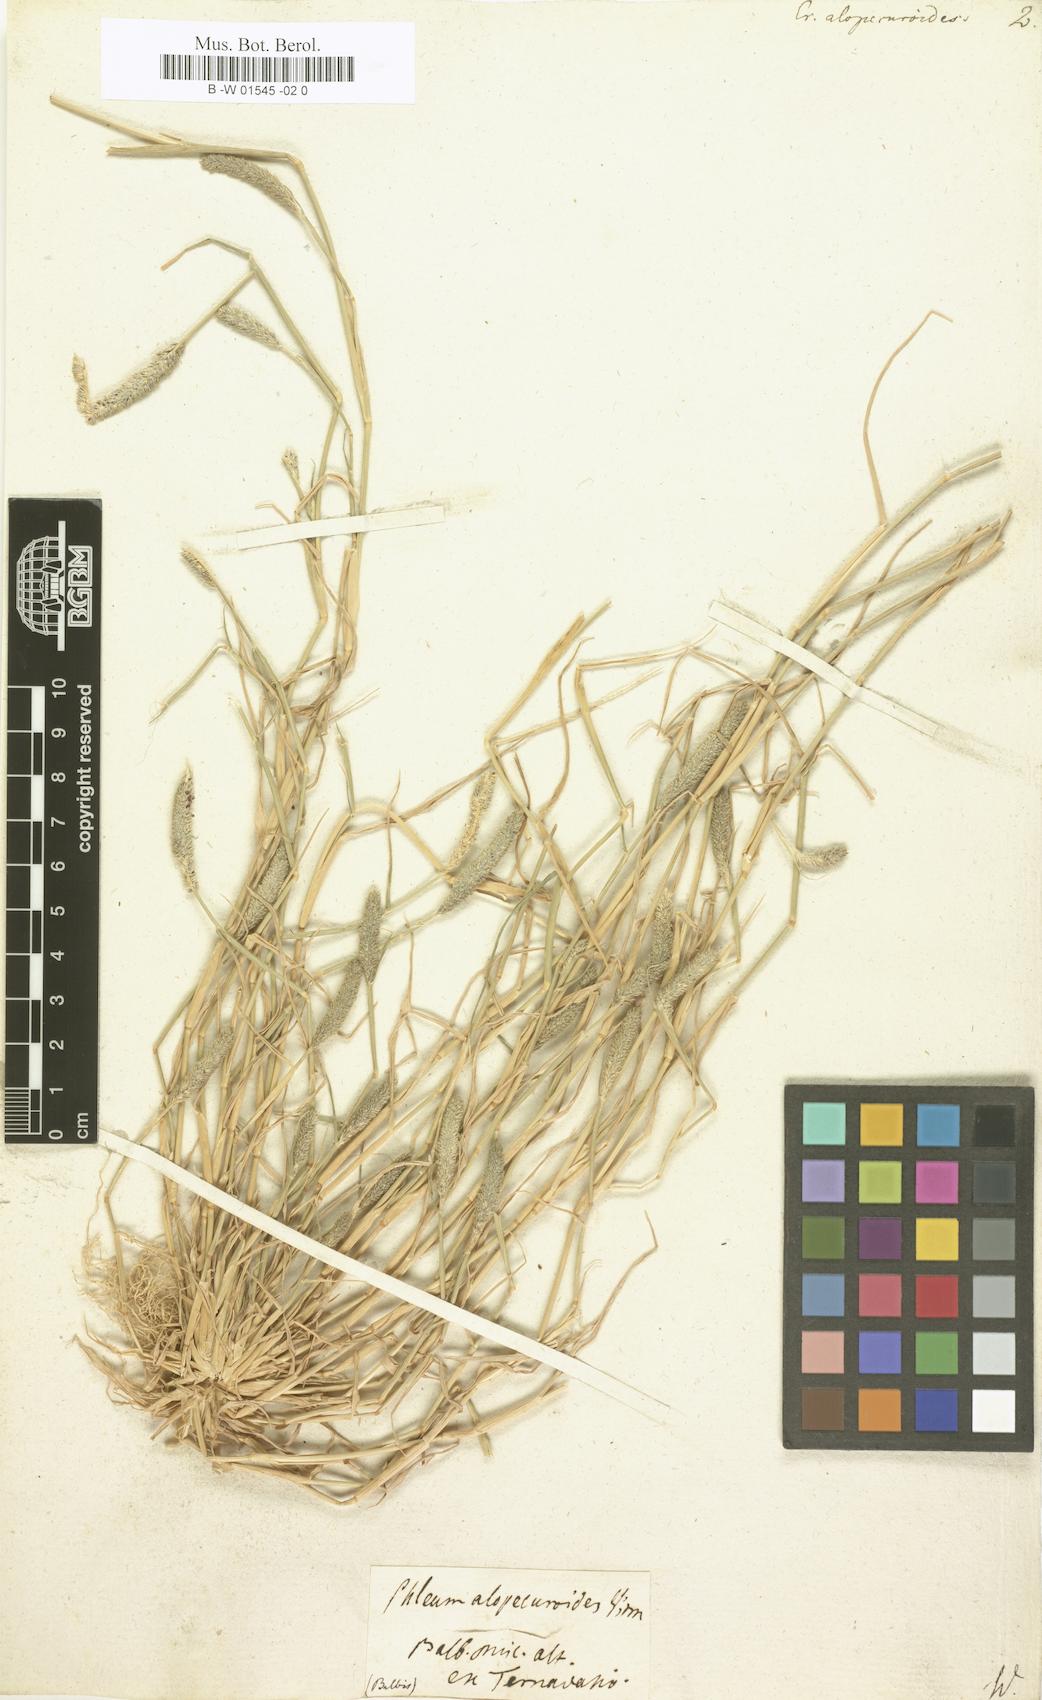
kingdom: Plantae
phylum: Tracheophyta
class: Liliopsida
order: Poales
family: Poaceae
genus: Sporobolus
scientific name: Sporobolus alopecuroides
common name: Foxtail pricklegrass
